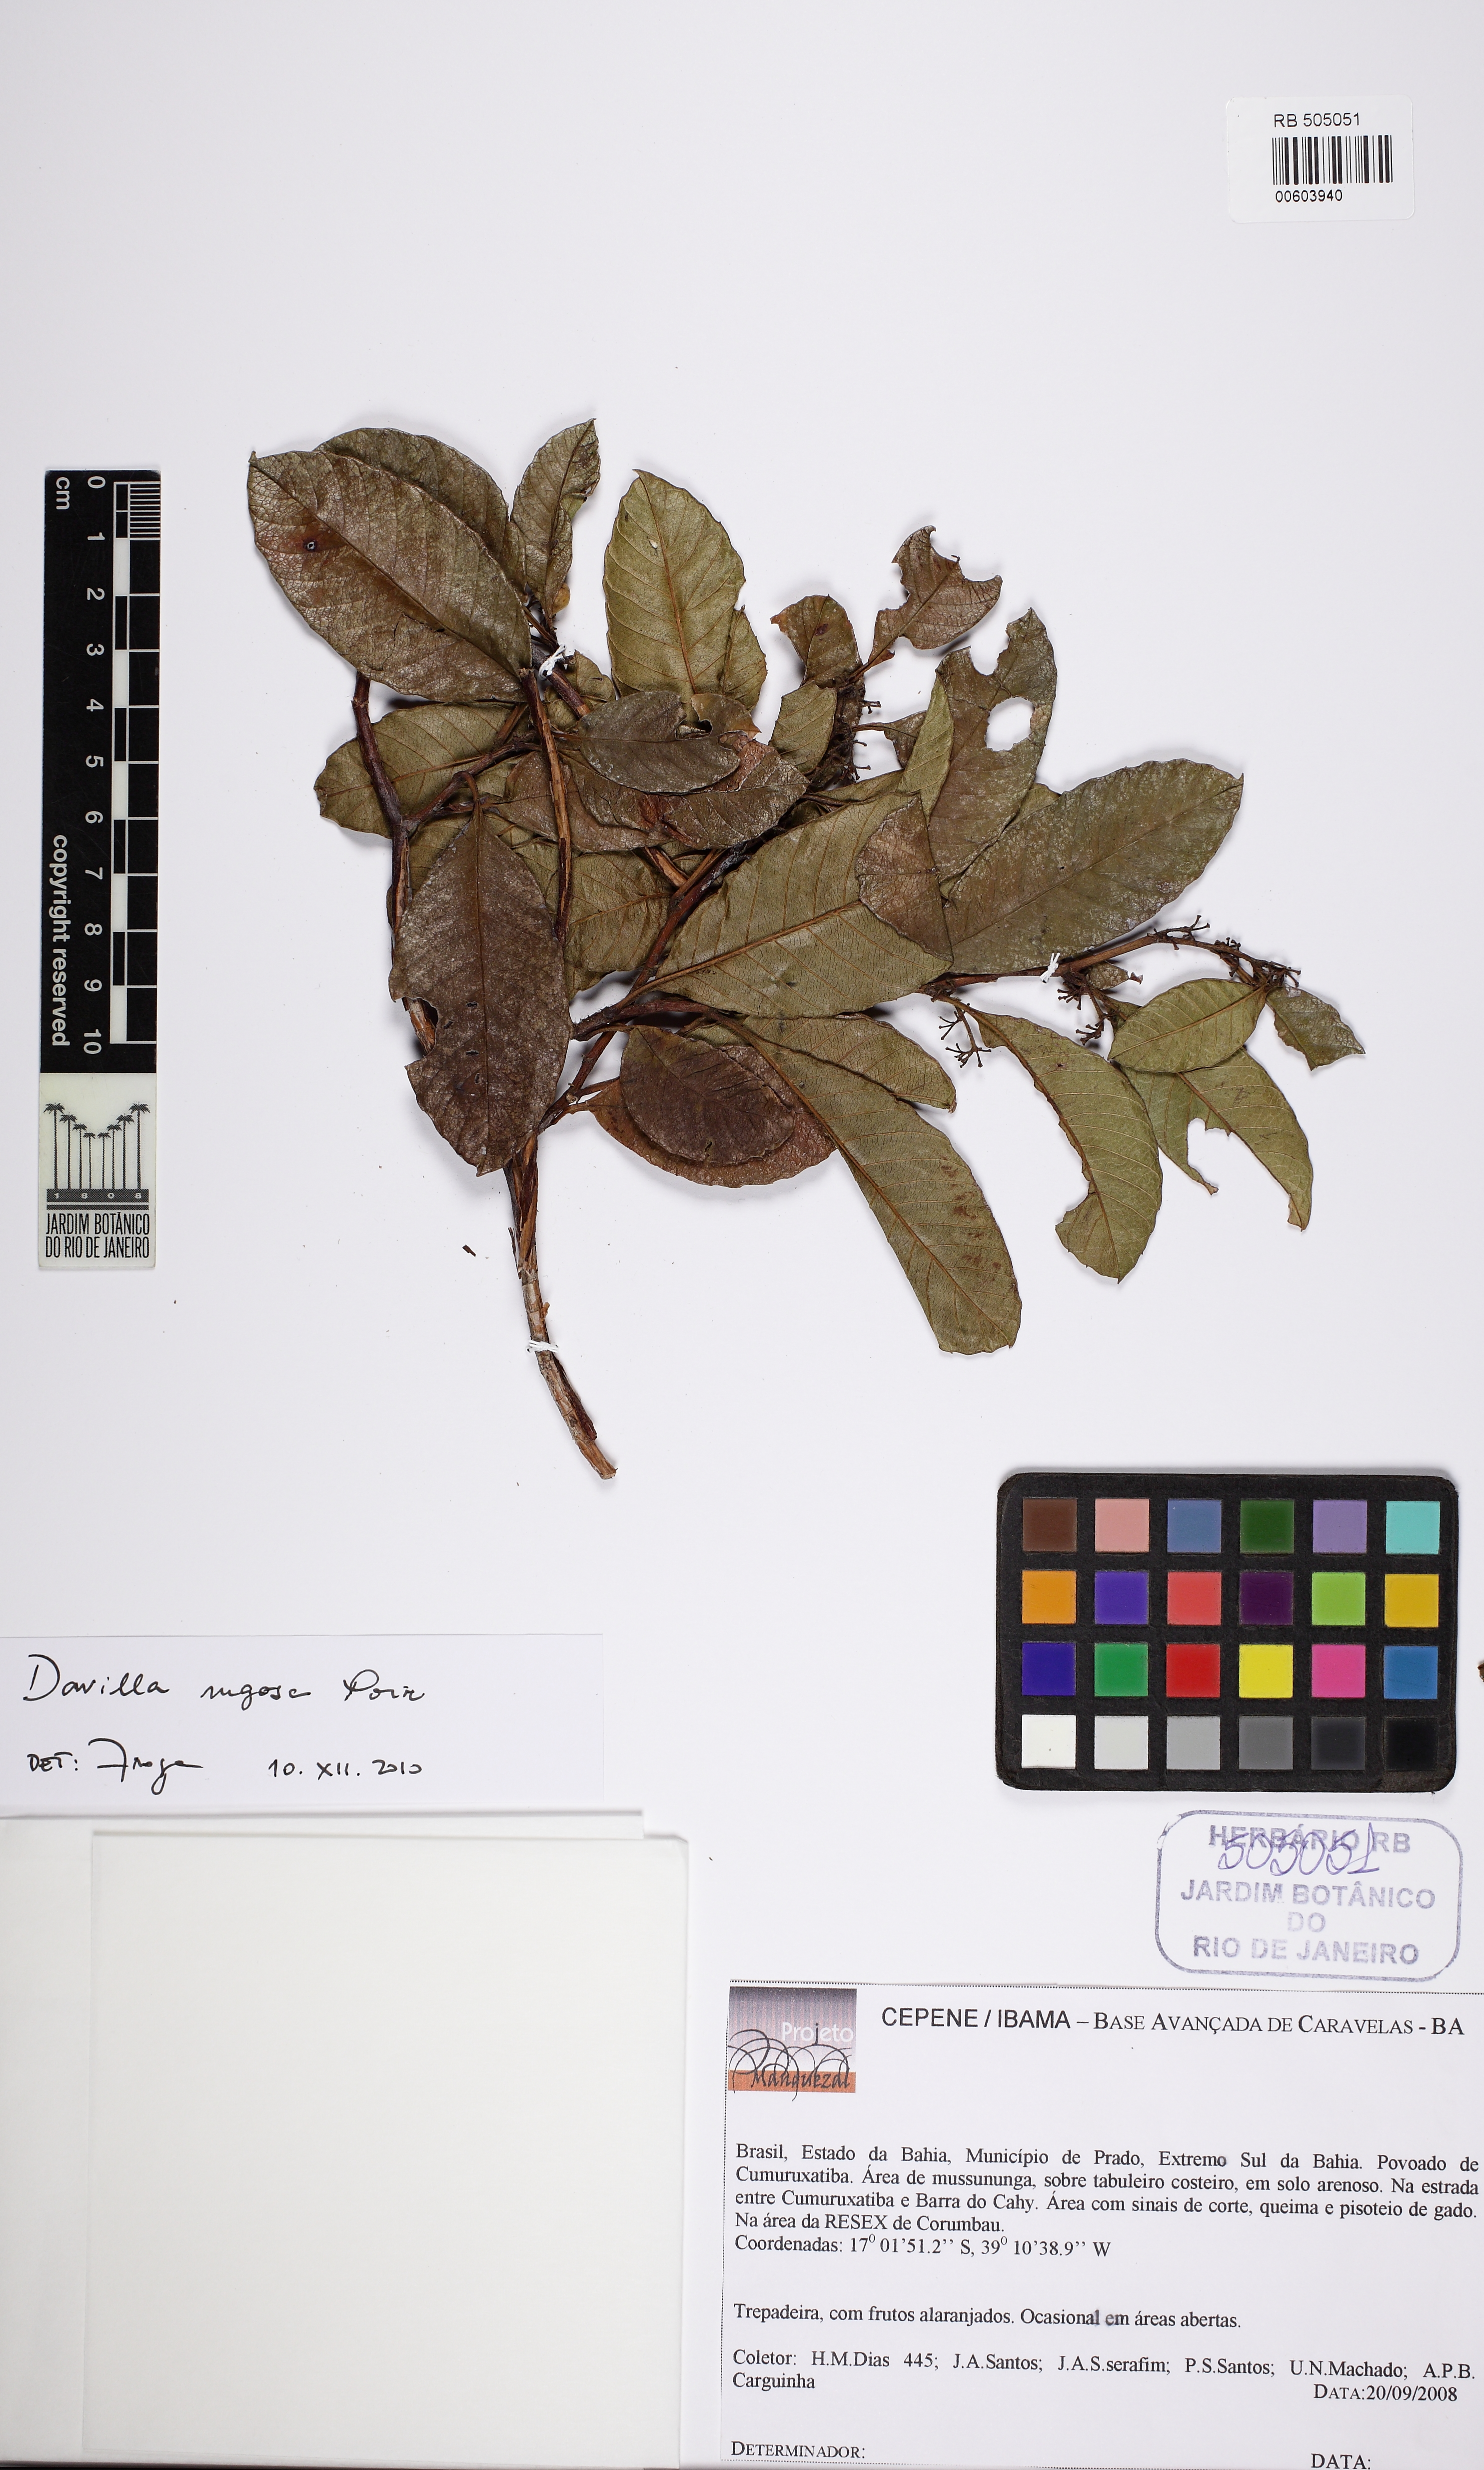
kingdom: Plantae
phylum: Tracheophyta
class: Magnoliopsida
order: Dilleniales
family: Dilleniaceae
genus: Davilla
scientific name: Davilla rugosa
